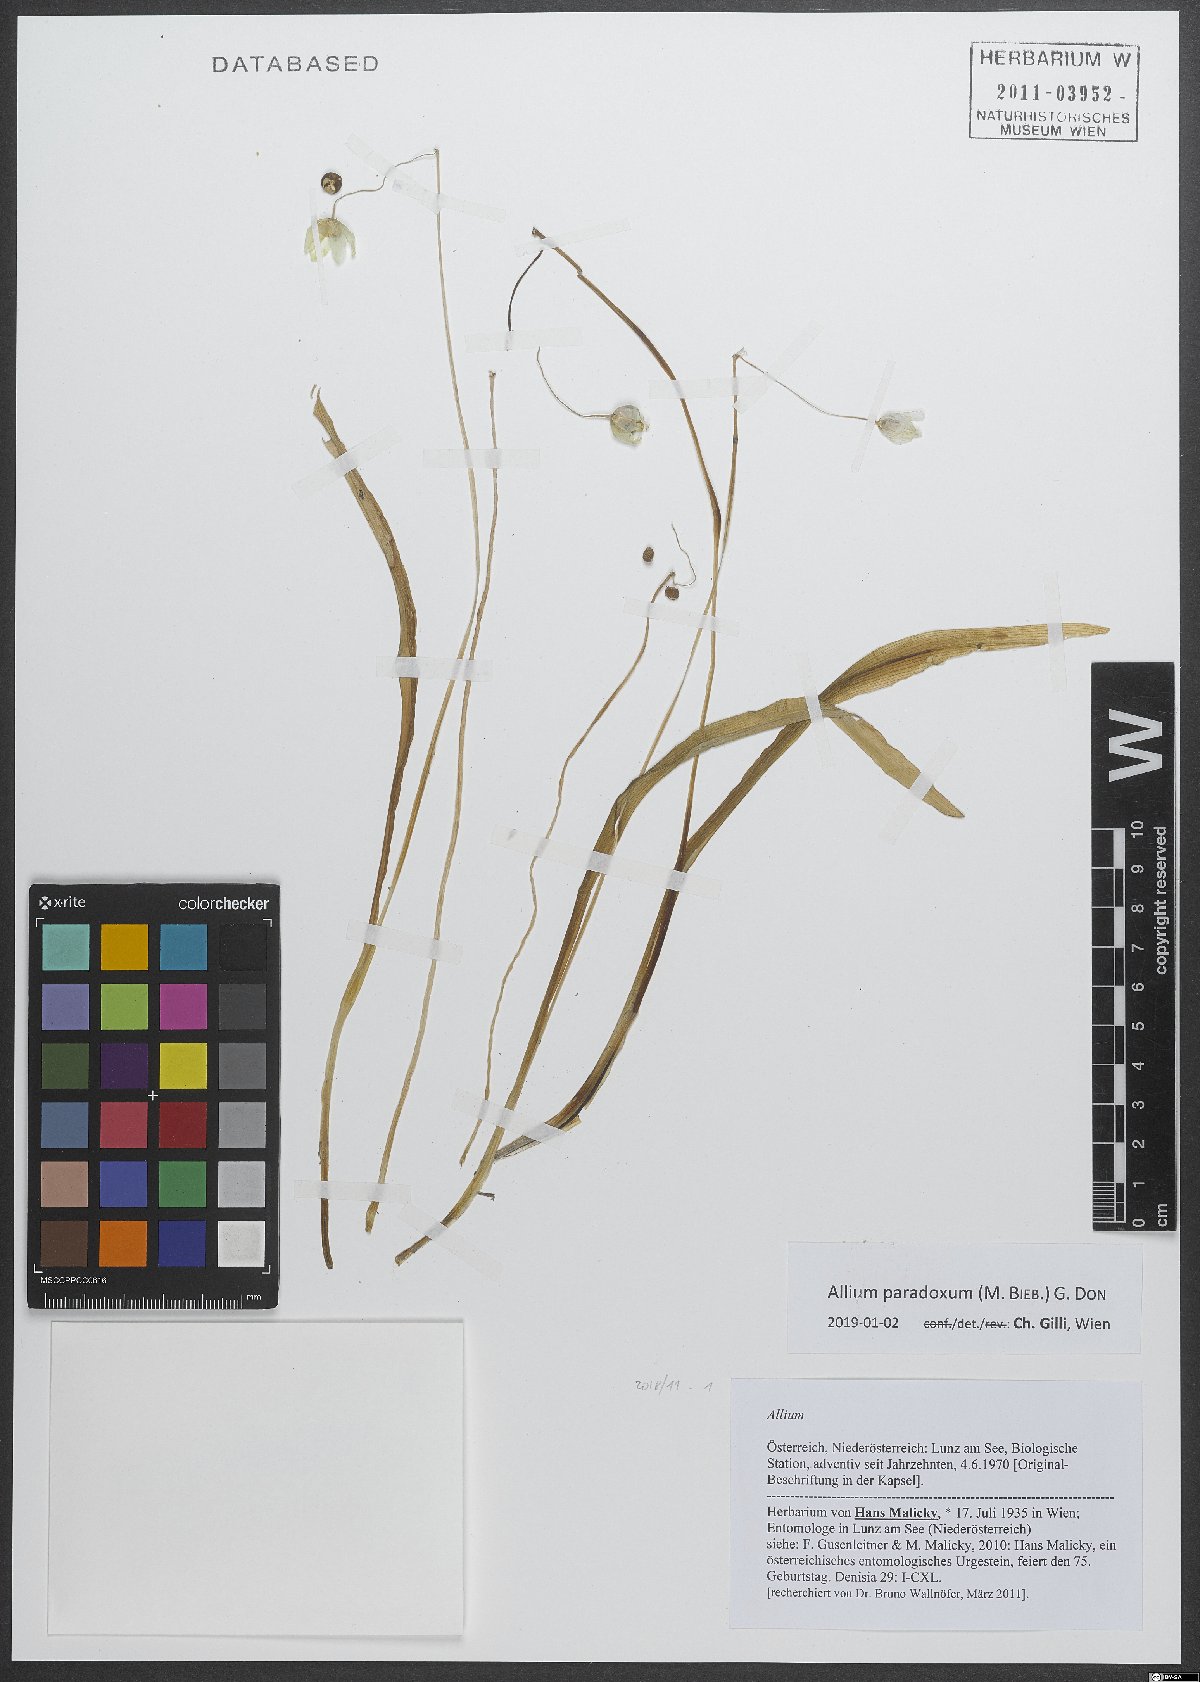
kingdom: Plantae
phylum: Tracheophyta
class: Liliopsida
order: Asparagales
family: Amaryllidaceae
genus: Allium
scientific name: Allium paradoxum
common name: Few-flowered garlic
